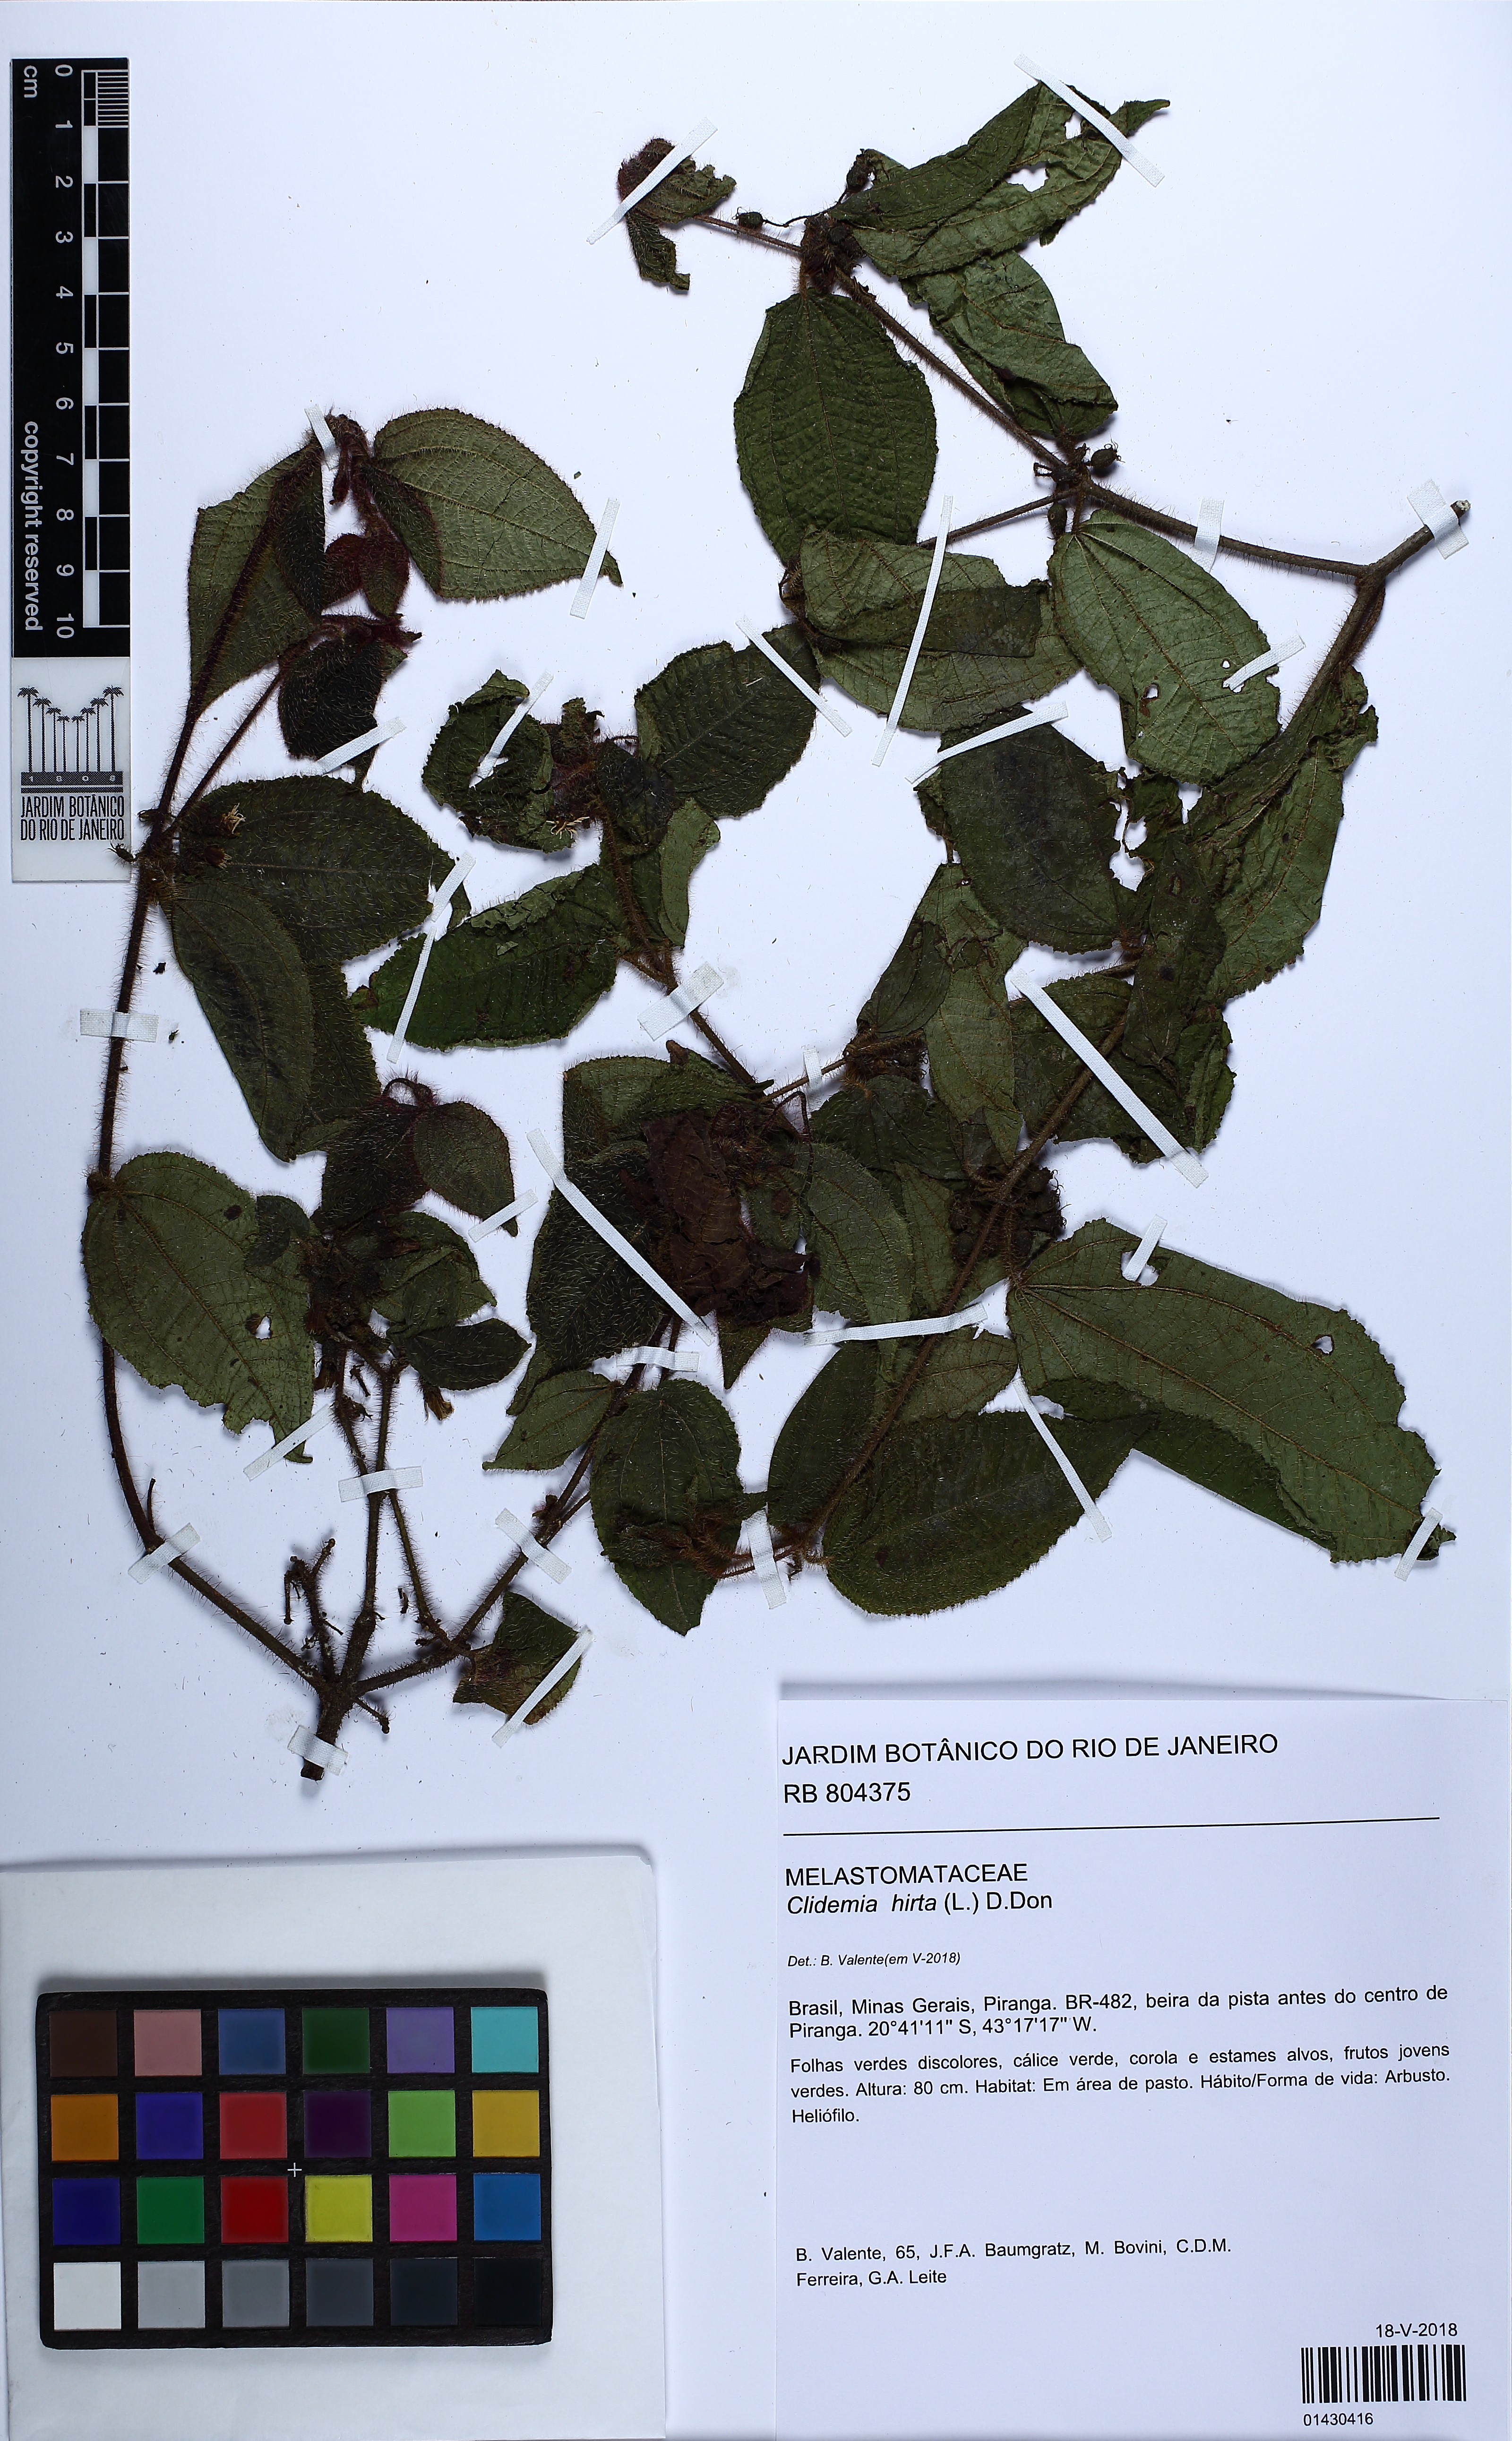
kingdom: Plantae
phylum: Tracheophyta
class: Magnoliopsida
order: Myrtales
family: Melastomataceae
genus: Miconia
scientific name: Miconia crenata
